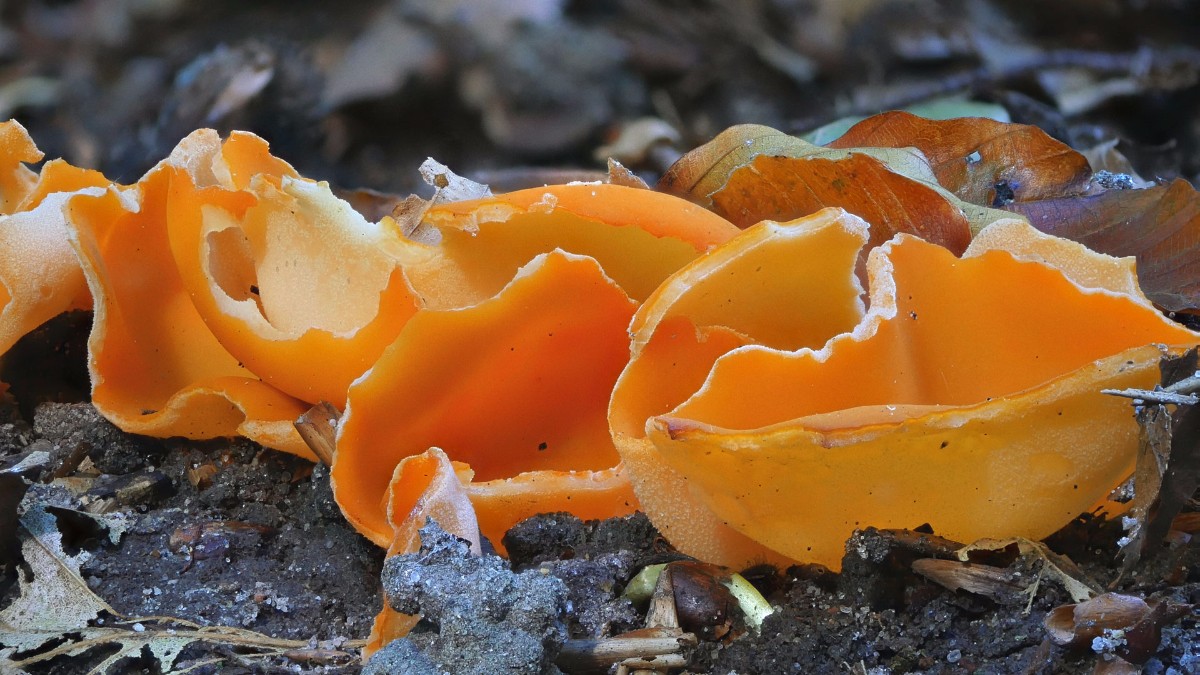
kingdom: Fungi
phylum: Ascomycota
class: Pezizomycetes
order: Pezizales
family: Pyronemataceae
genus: Aleuria
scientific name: Aleuria aurantia
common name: almindelig orangebæger
